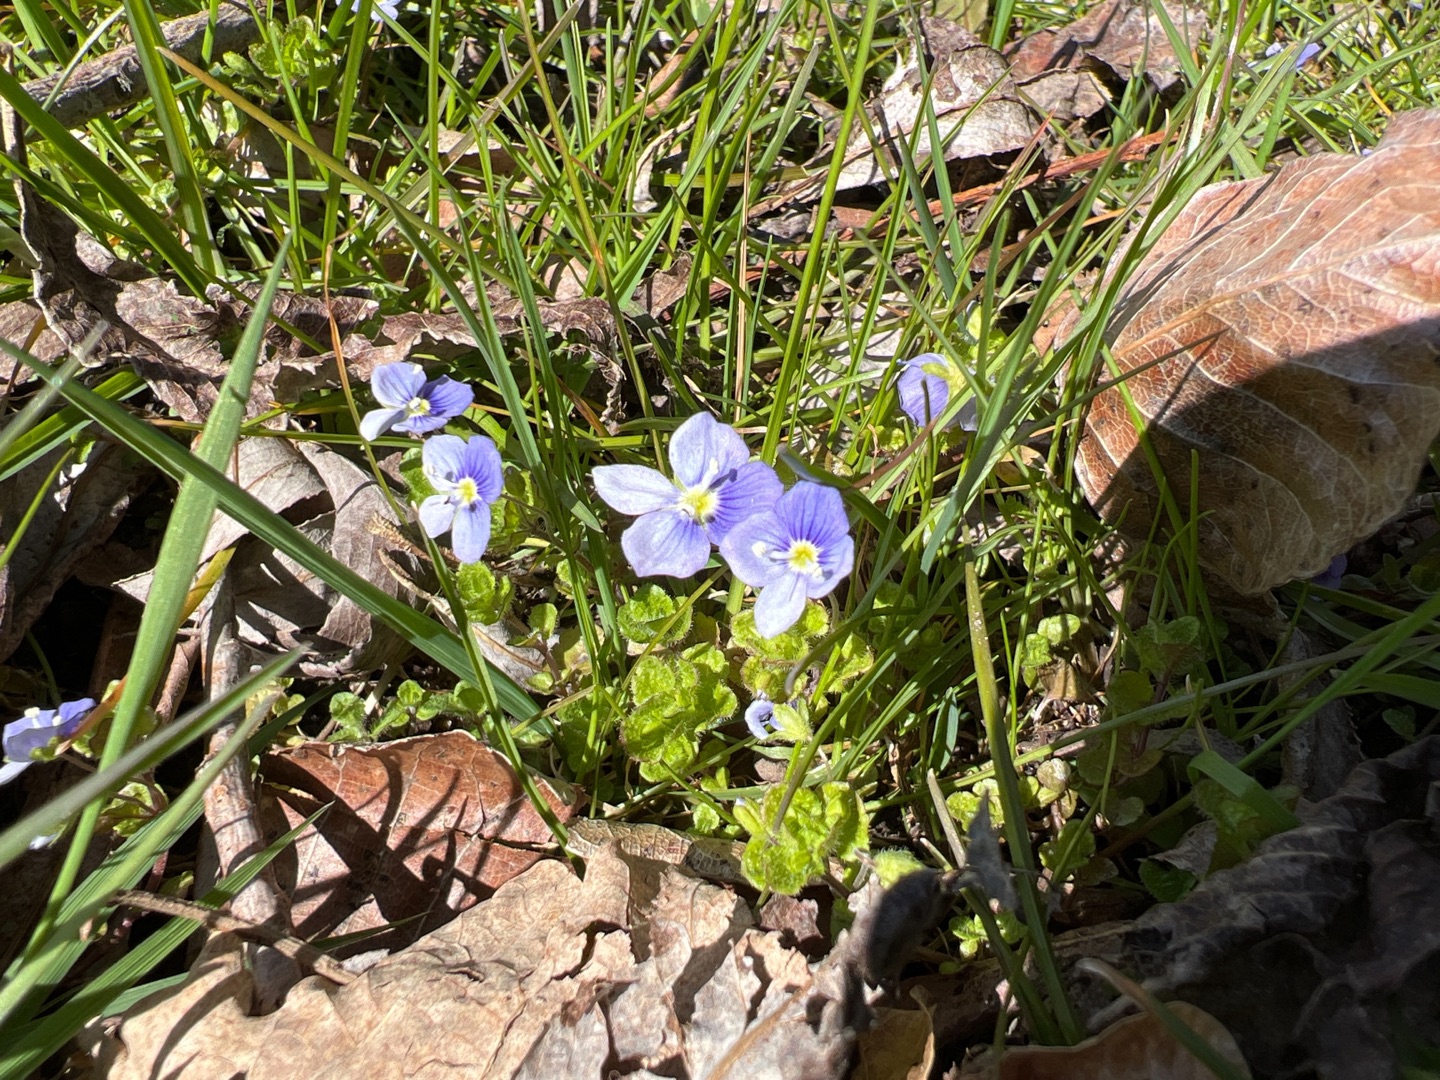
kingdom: Plantae
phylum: Tracheophyta
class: Magnoliopsida
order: Lamiales
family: Plantaginaceae
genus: Veronica
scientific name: Veronica filiformis
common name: Tråd-ærenpris
